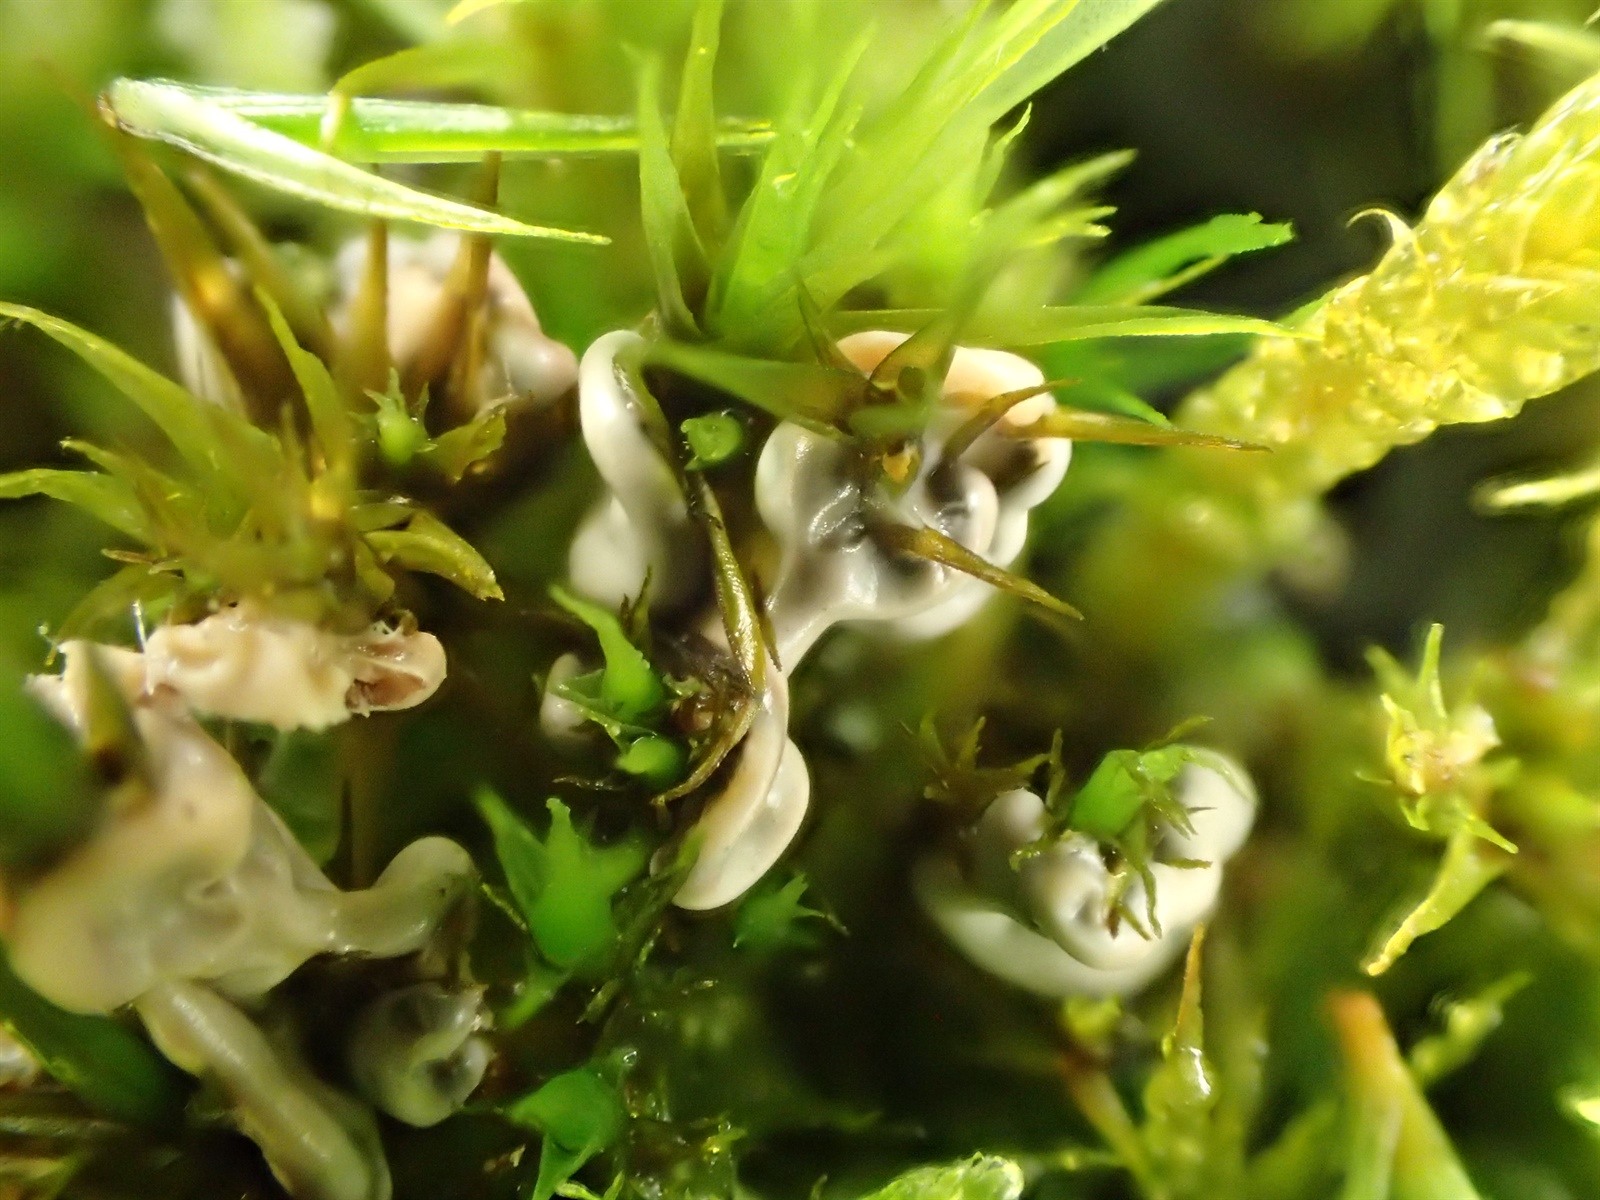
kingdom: Protozoa
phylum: Mycetozoa
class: Myxomycetes
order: Physarales
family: Didymiaceae
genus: Diderma
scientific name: Diderma deplanatum
